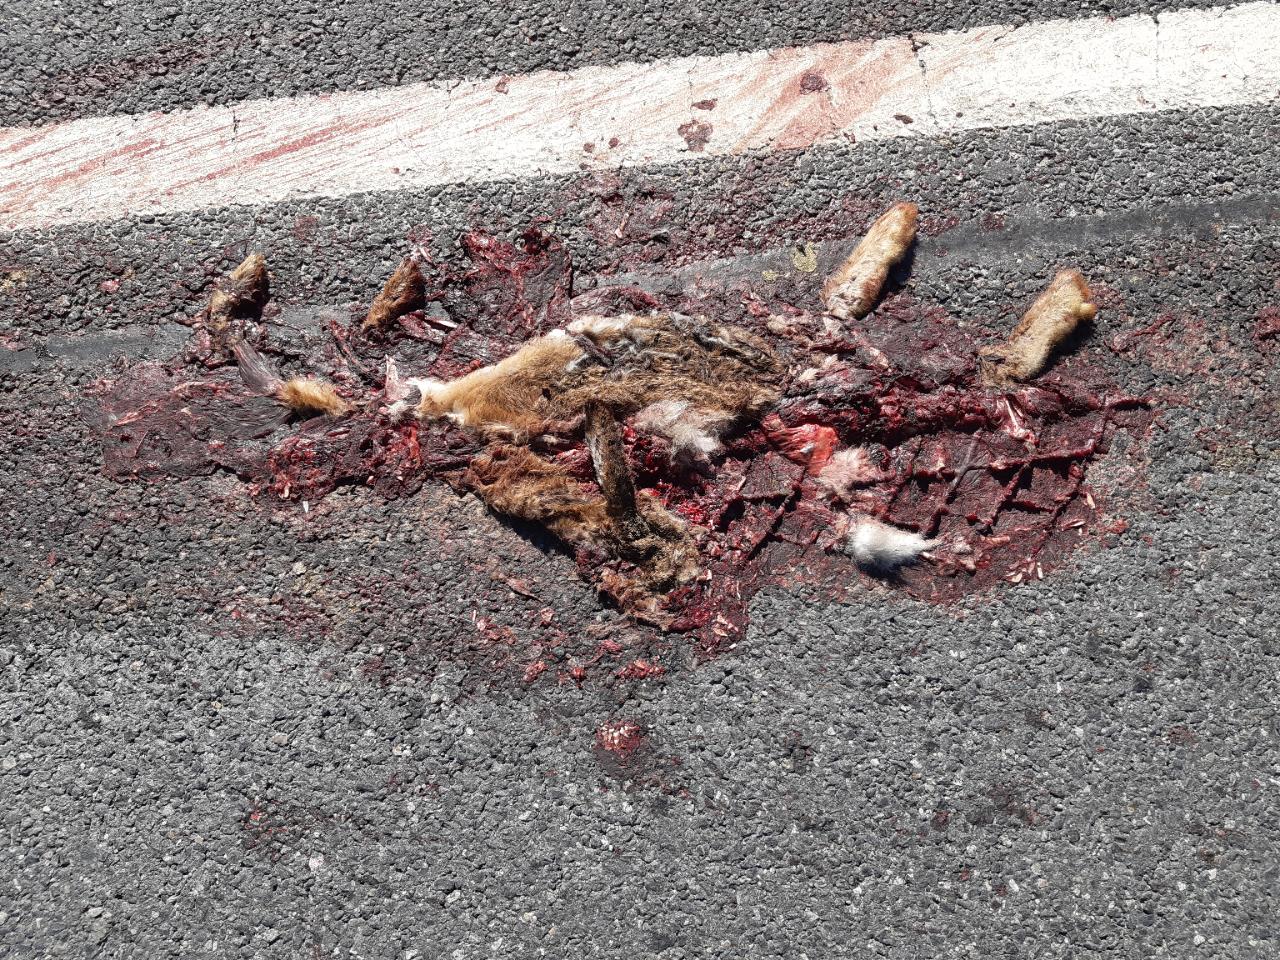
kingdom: Animalia
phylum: Chordata
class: Mammalia
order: Lagomorpha
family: Leporidae
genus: Lepus
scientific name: Lepus europaeus
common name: European hare
